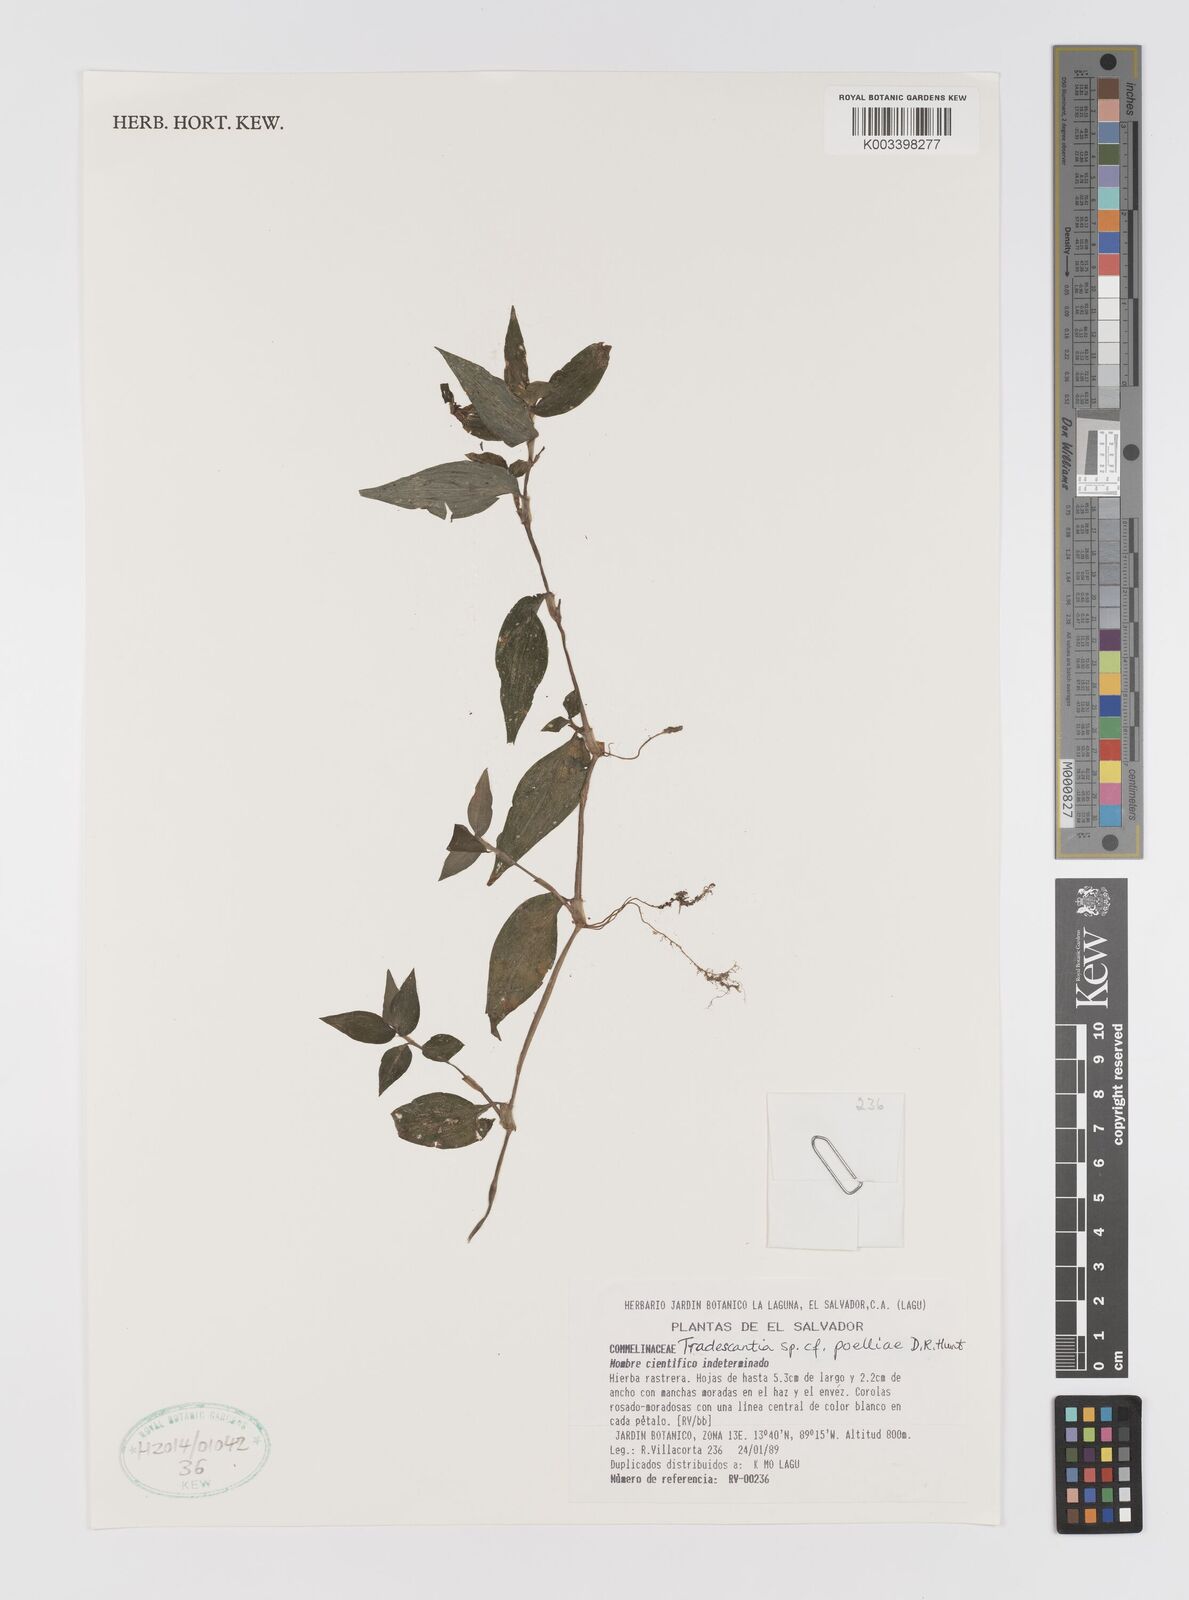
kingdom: Plantae
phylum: Tracheophyta
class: Liliopsida
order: Commelinales
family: Commelinaceae
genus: Tradescantia
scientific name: Tradescantia poelliae
